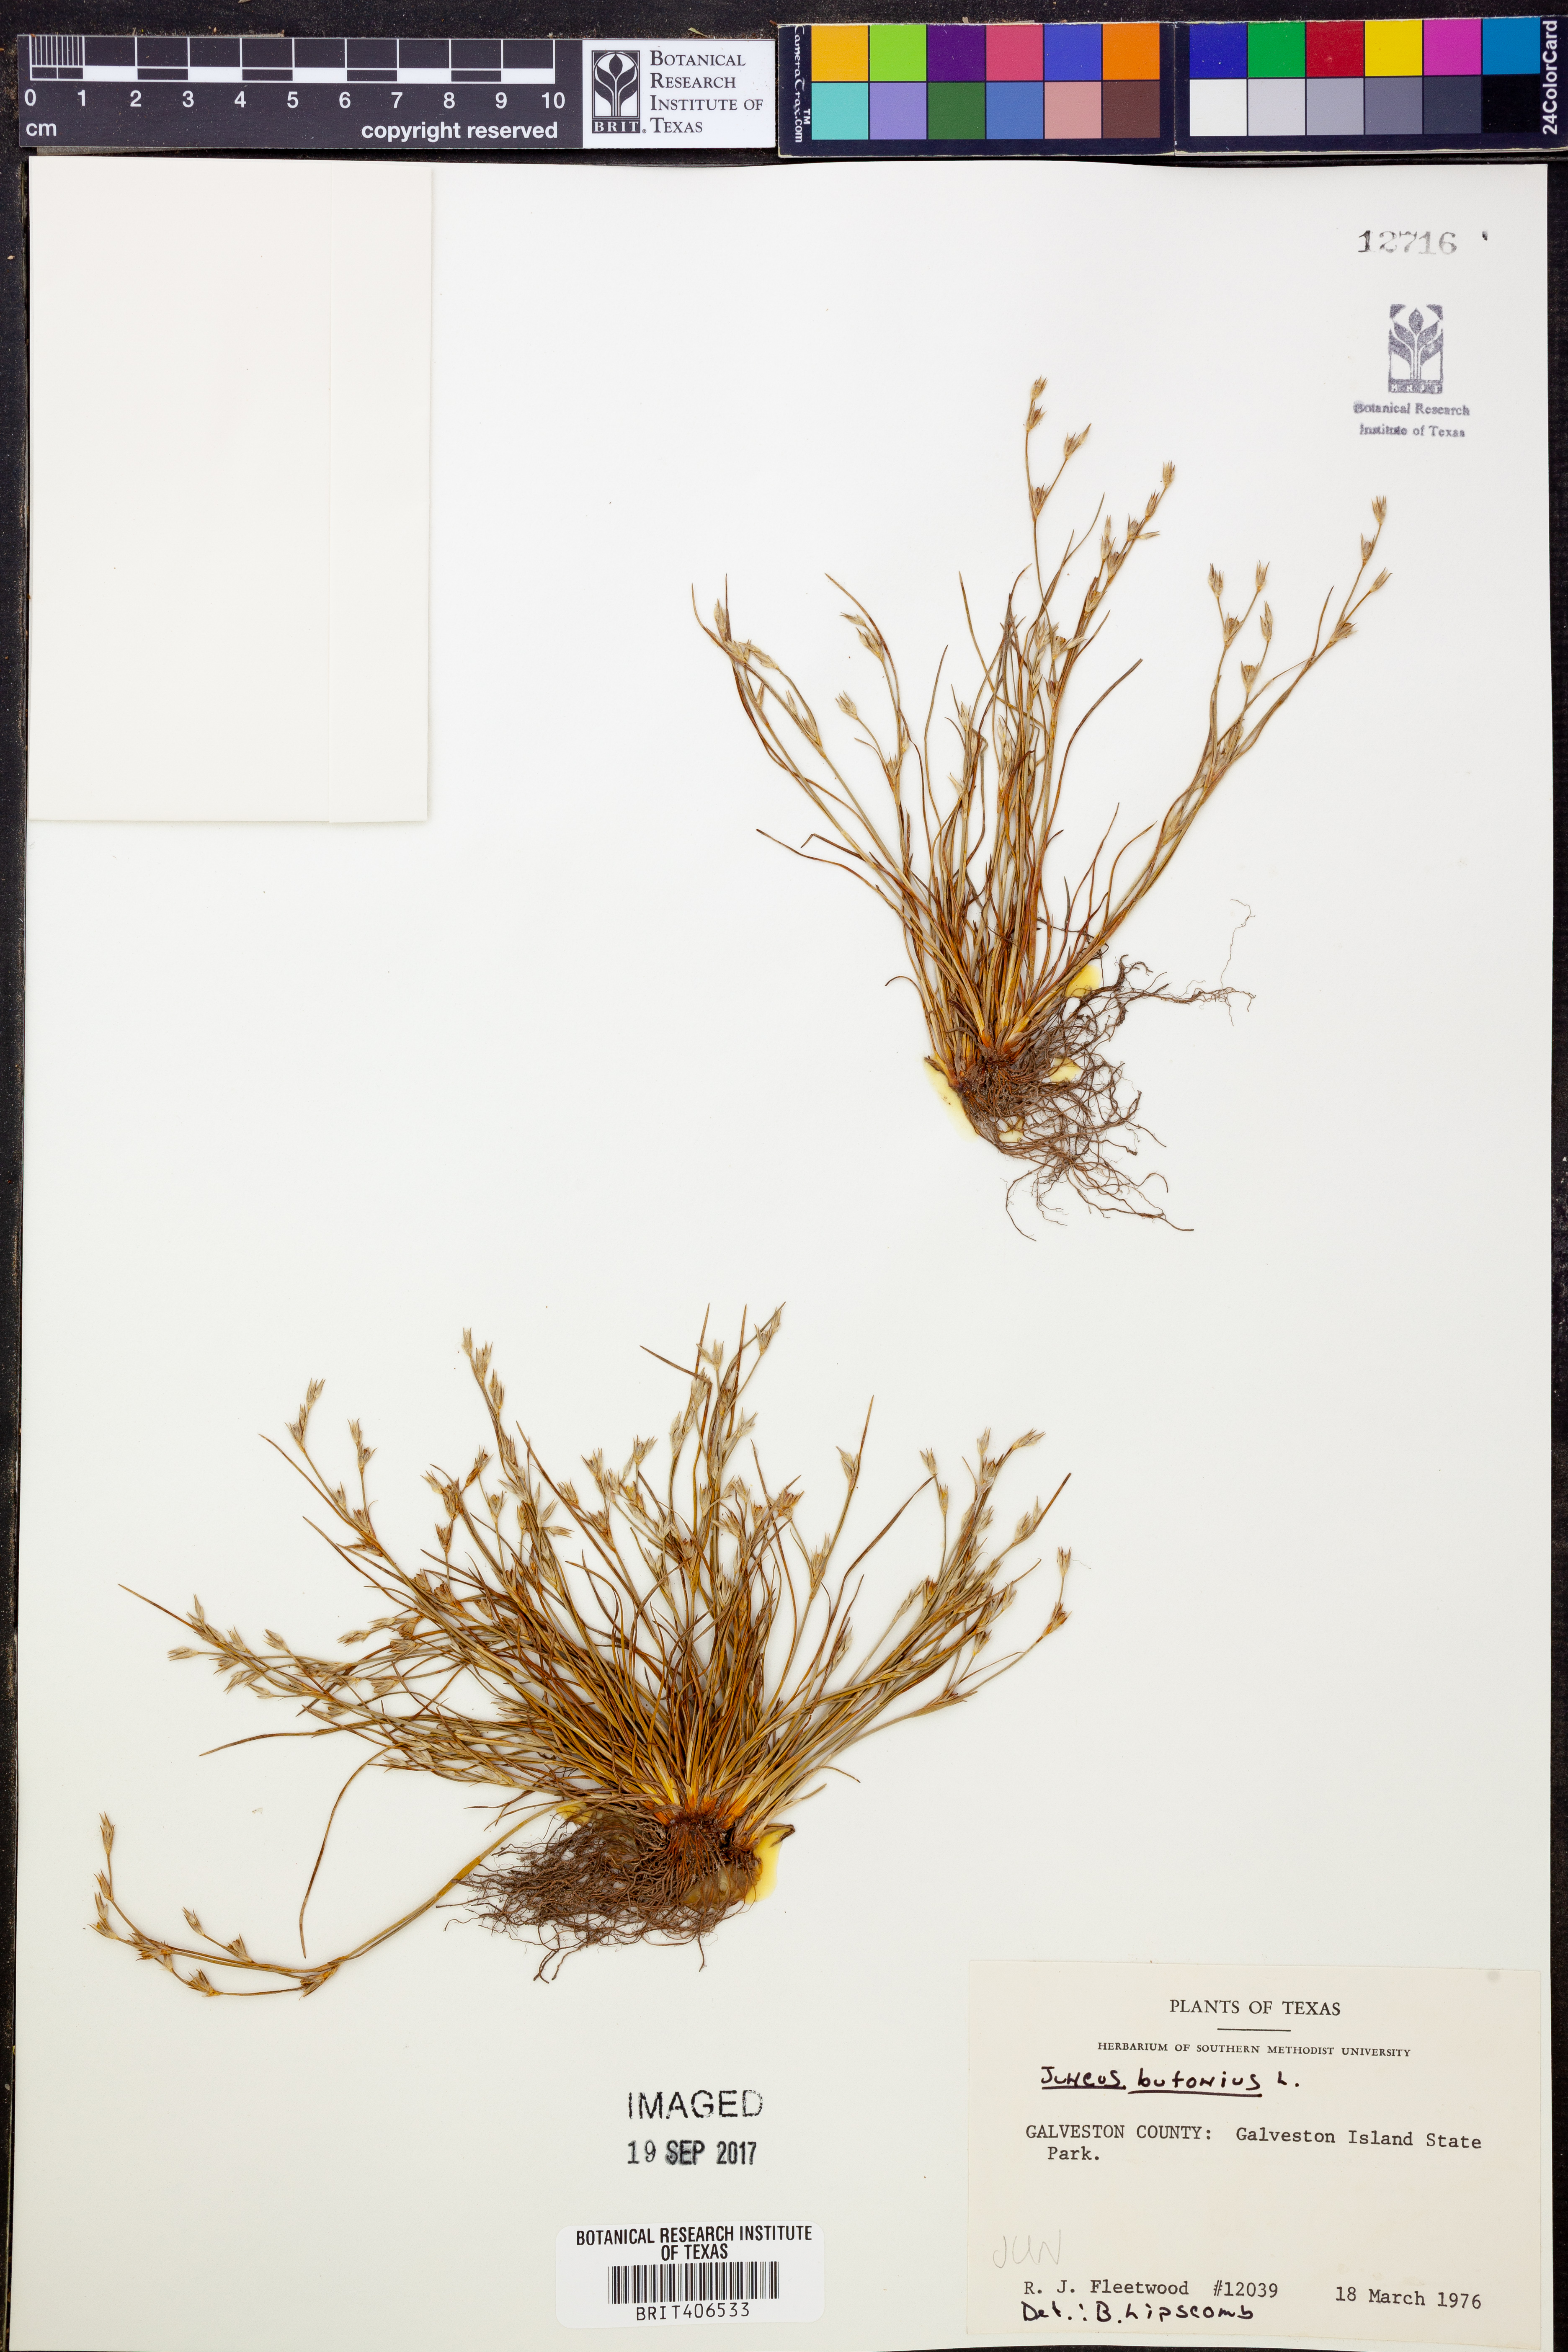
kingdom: Plantae
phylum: Tracheophyta
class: Liliopsida
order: Poales
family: Juncaceae
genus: Juncus
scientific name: Juncus bufonius
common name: Toad rush
